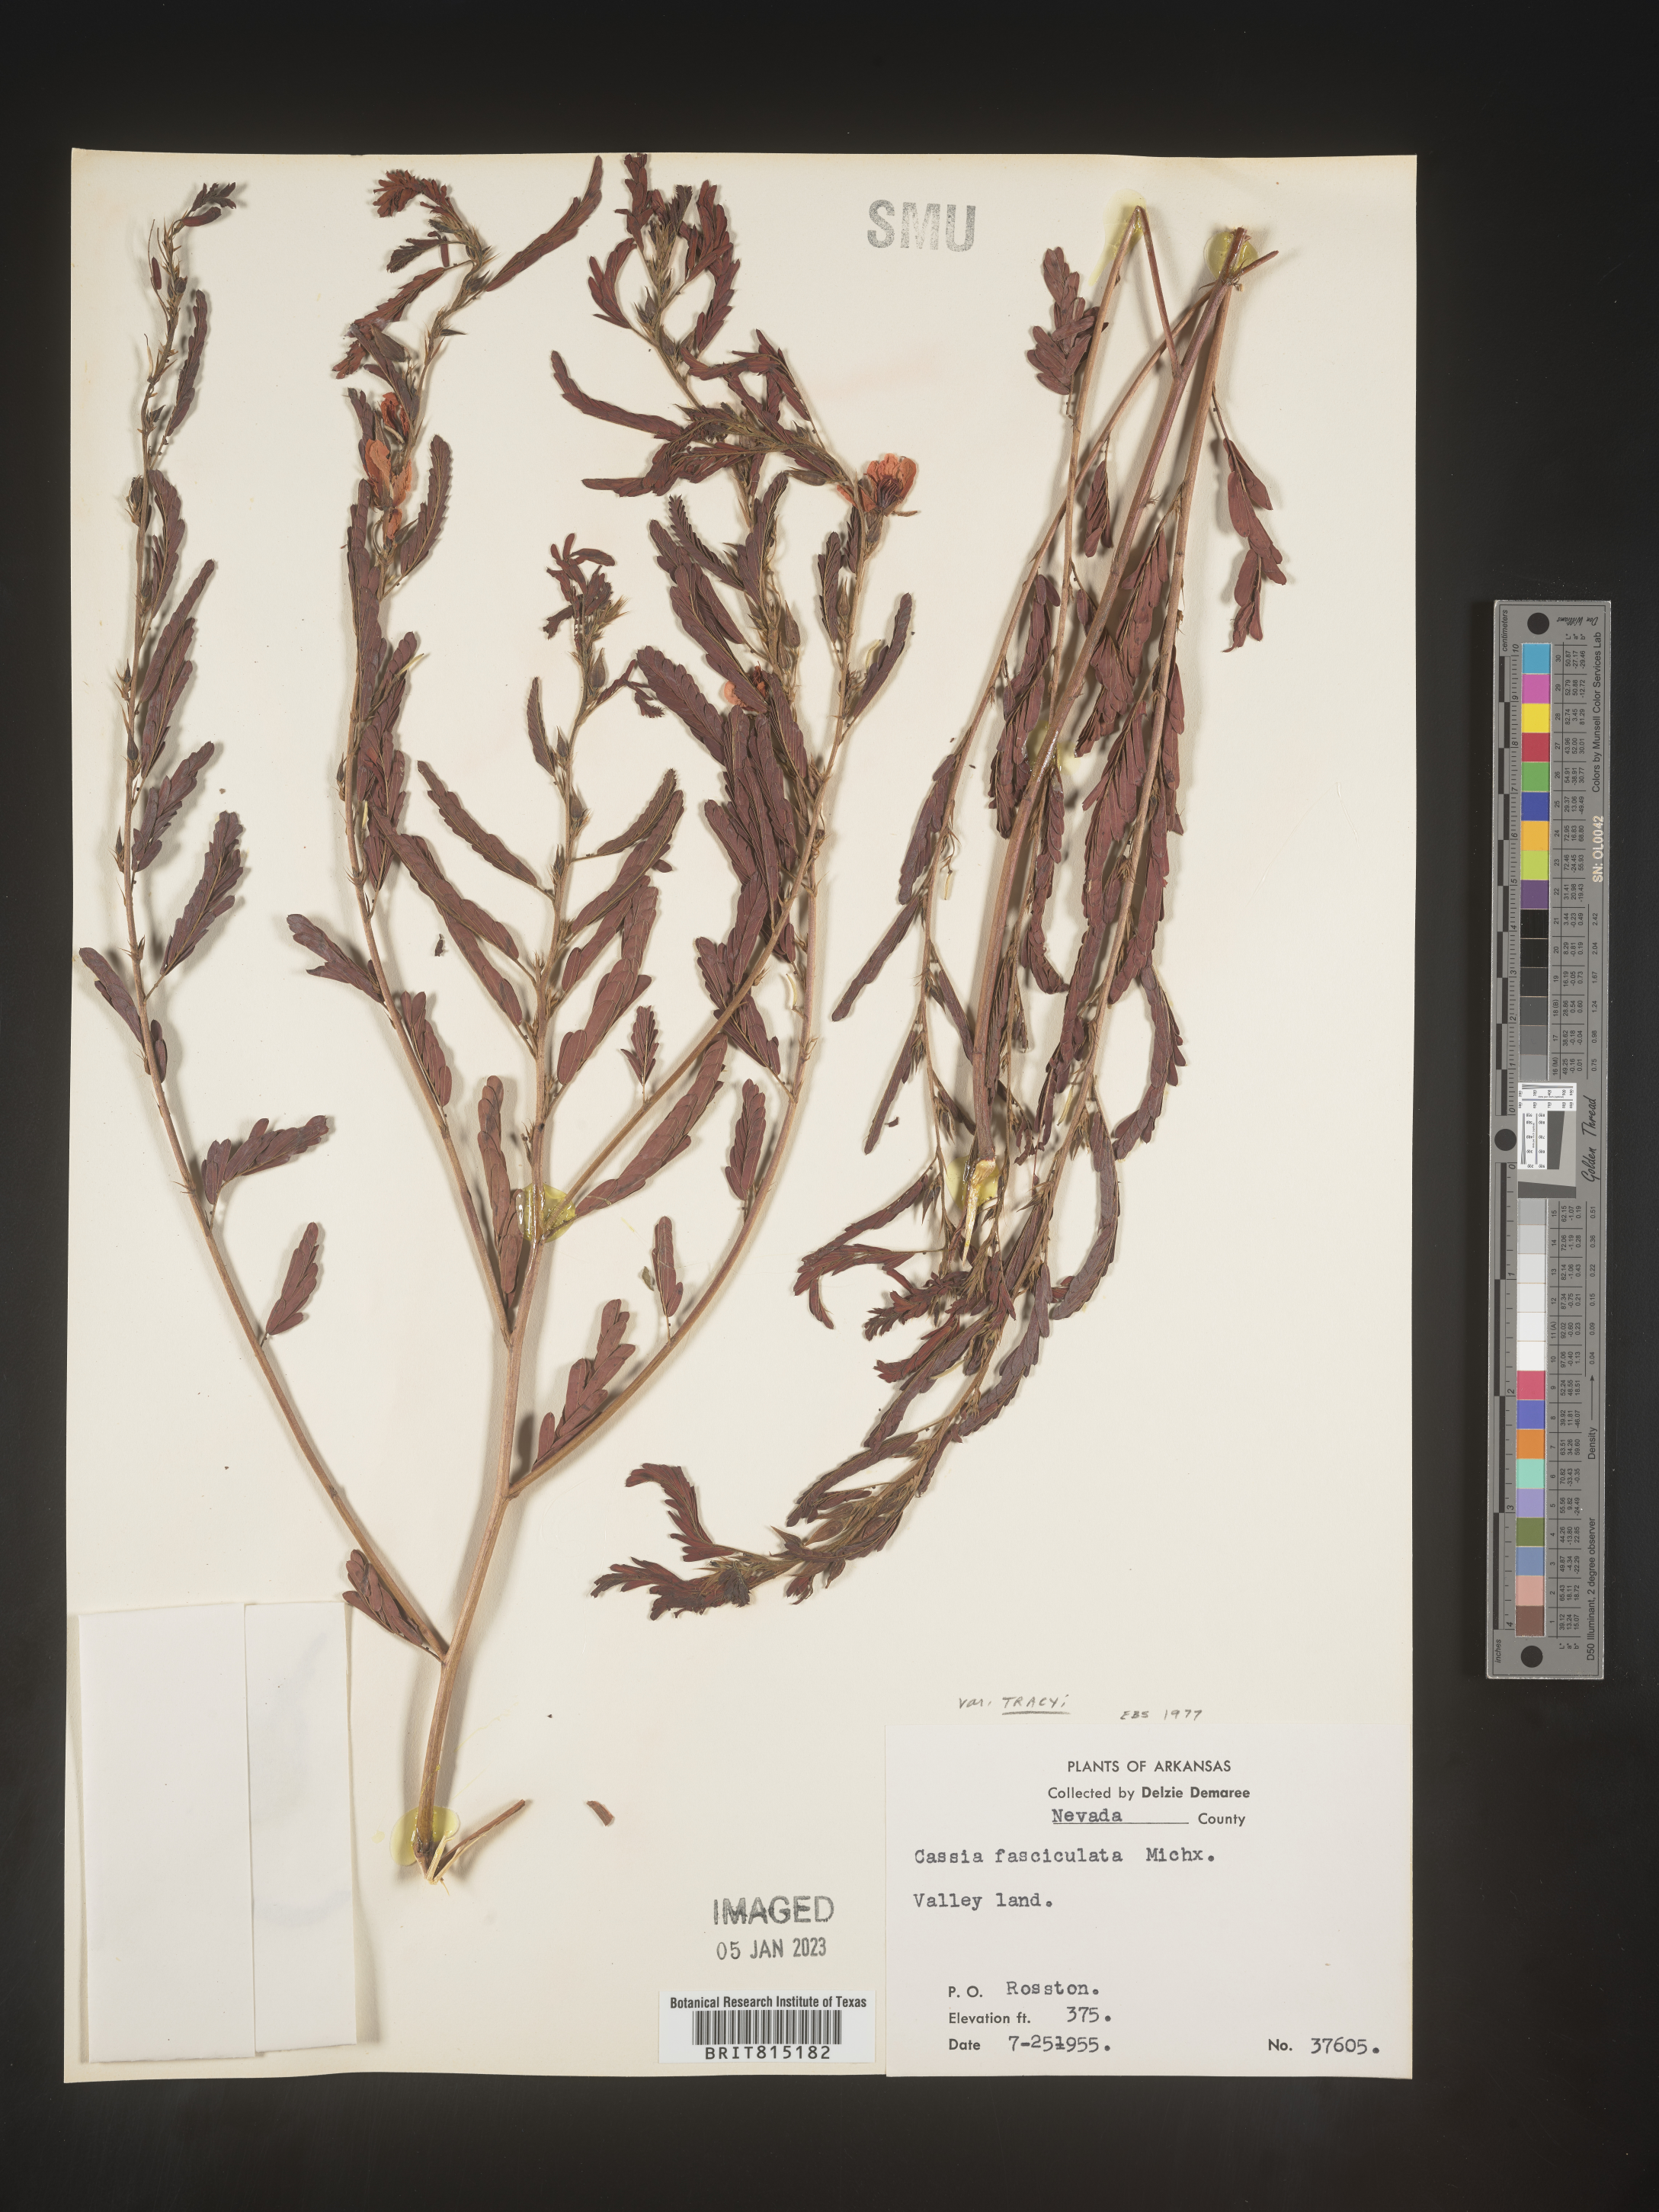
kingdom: Plantae
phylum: Tracheophyta
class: Magnoliopsida
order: Fabales
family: Fabaceae
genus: Chamaecrista
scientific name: Chamaecrista fasciculata
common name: Golden cassia
